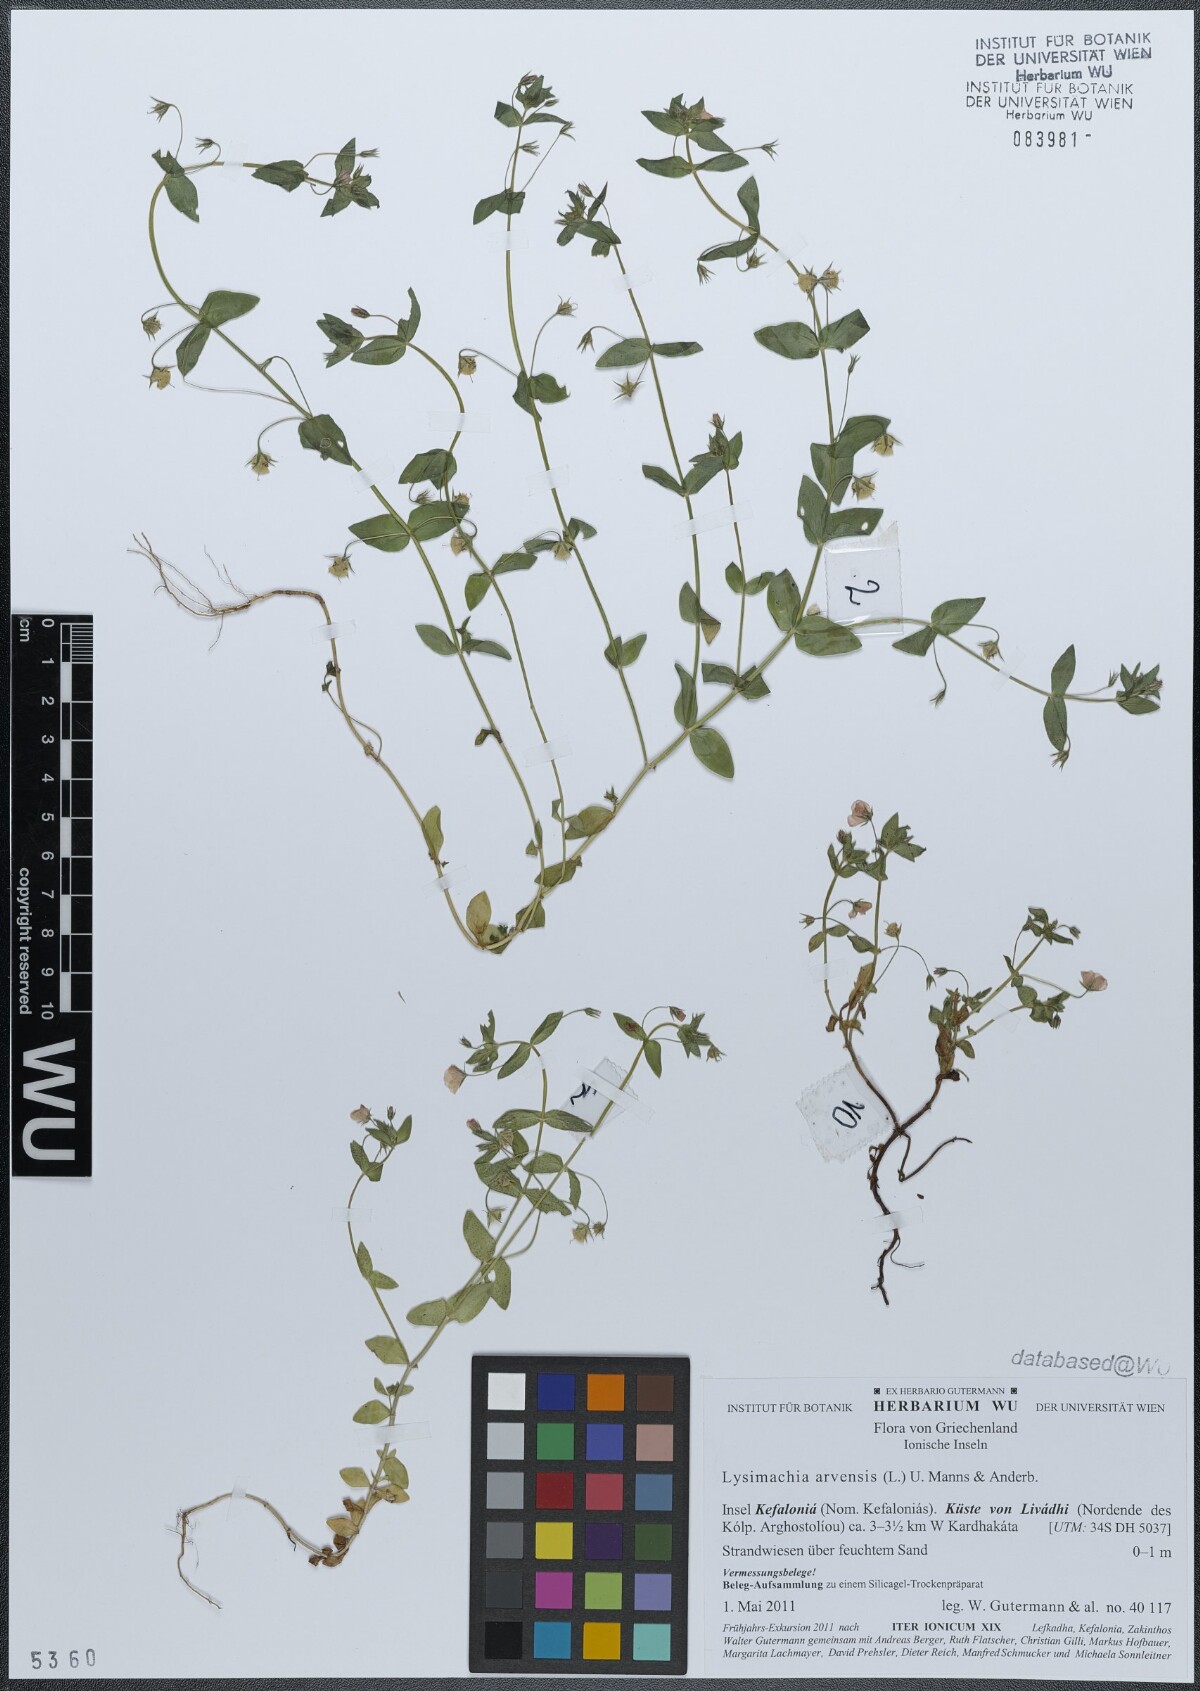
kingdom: Plantae
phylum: Tracheophyta
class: Magnoliopsida
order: Ericales
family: Primulaceae
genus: Lysimachia
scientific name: Lysimachia arvensis
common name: Scarlet pimpernel
